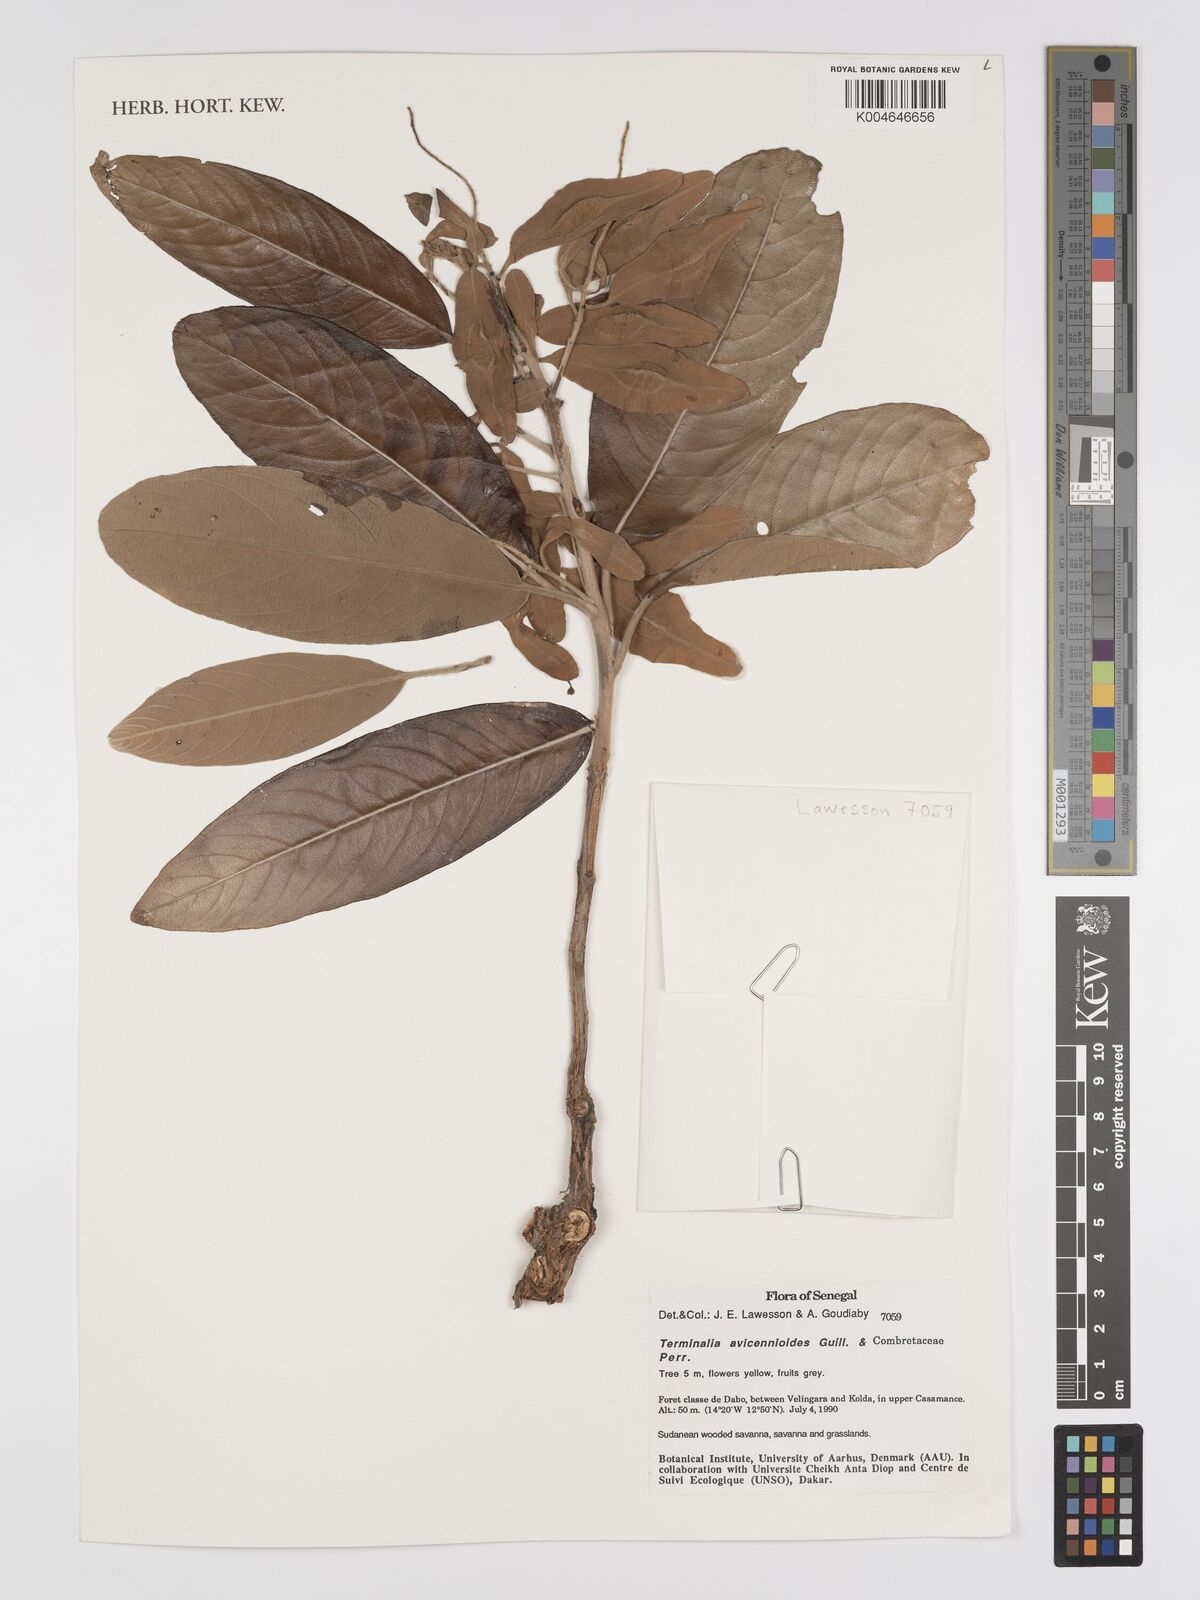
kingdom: Plantae
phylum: Tracheophyta
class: Magnoliopsida
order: Myrtales
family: Combretaceae
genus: Terminalia
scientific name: Terminalia avicennioides
